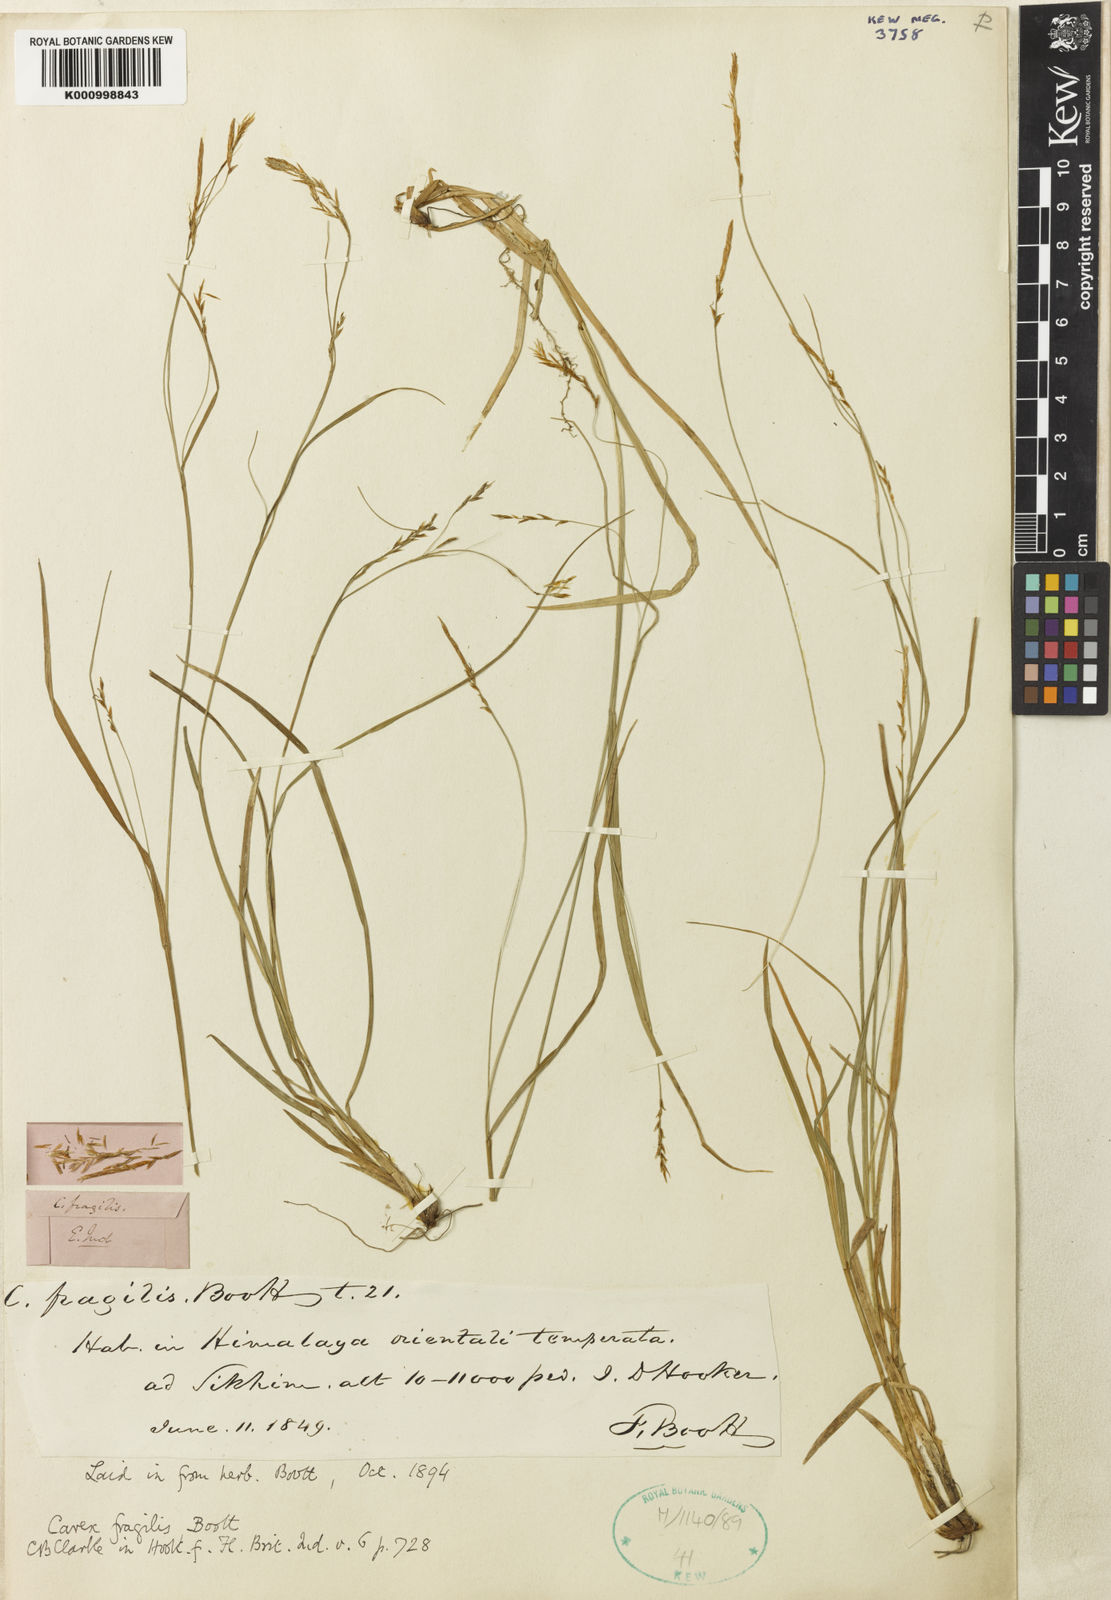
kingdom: Plantae
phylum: Tracheophyta
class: Liliopsida
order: Poales
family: Cyperaceae
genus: Carex
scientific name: Carex fragilis
